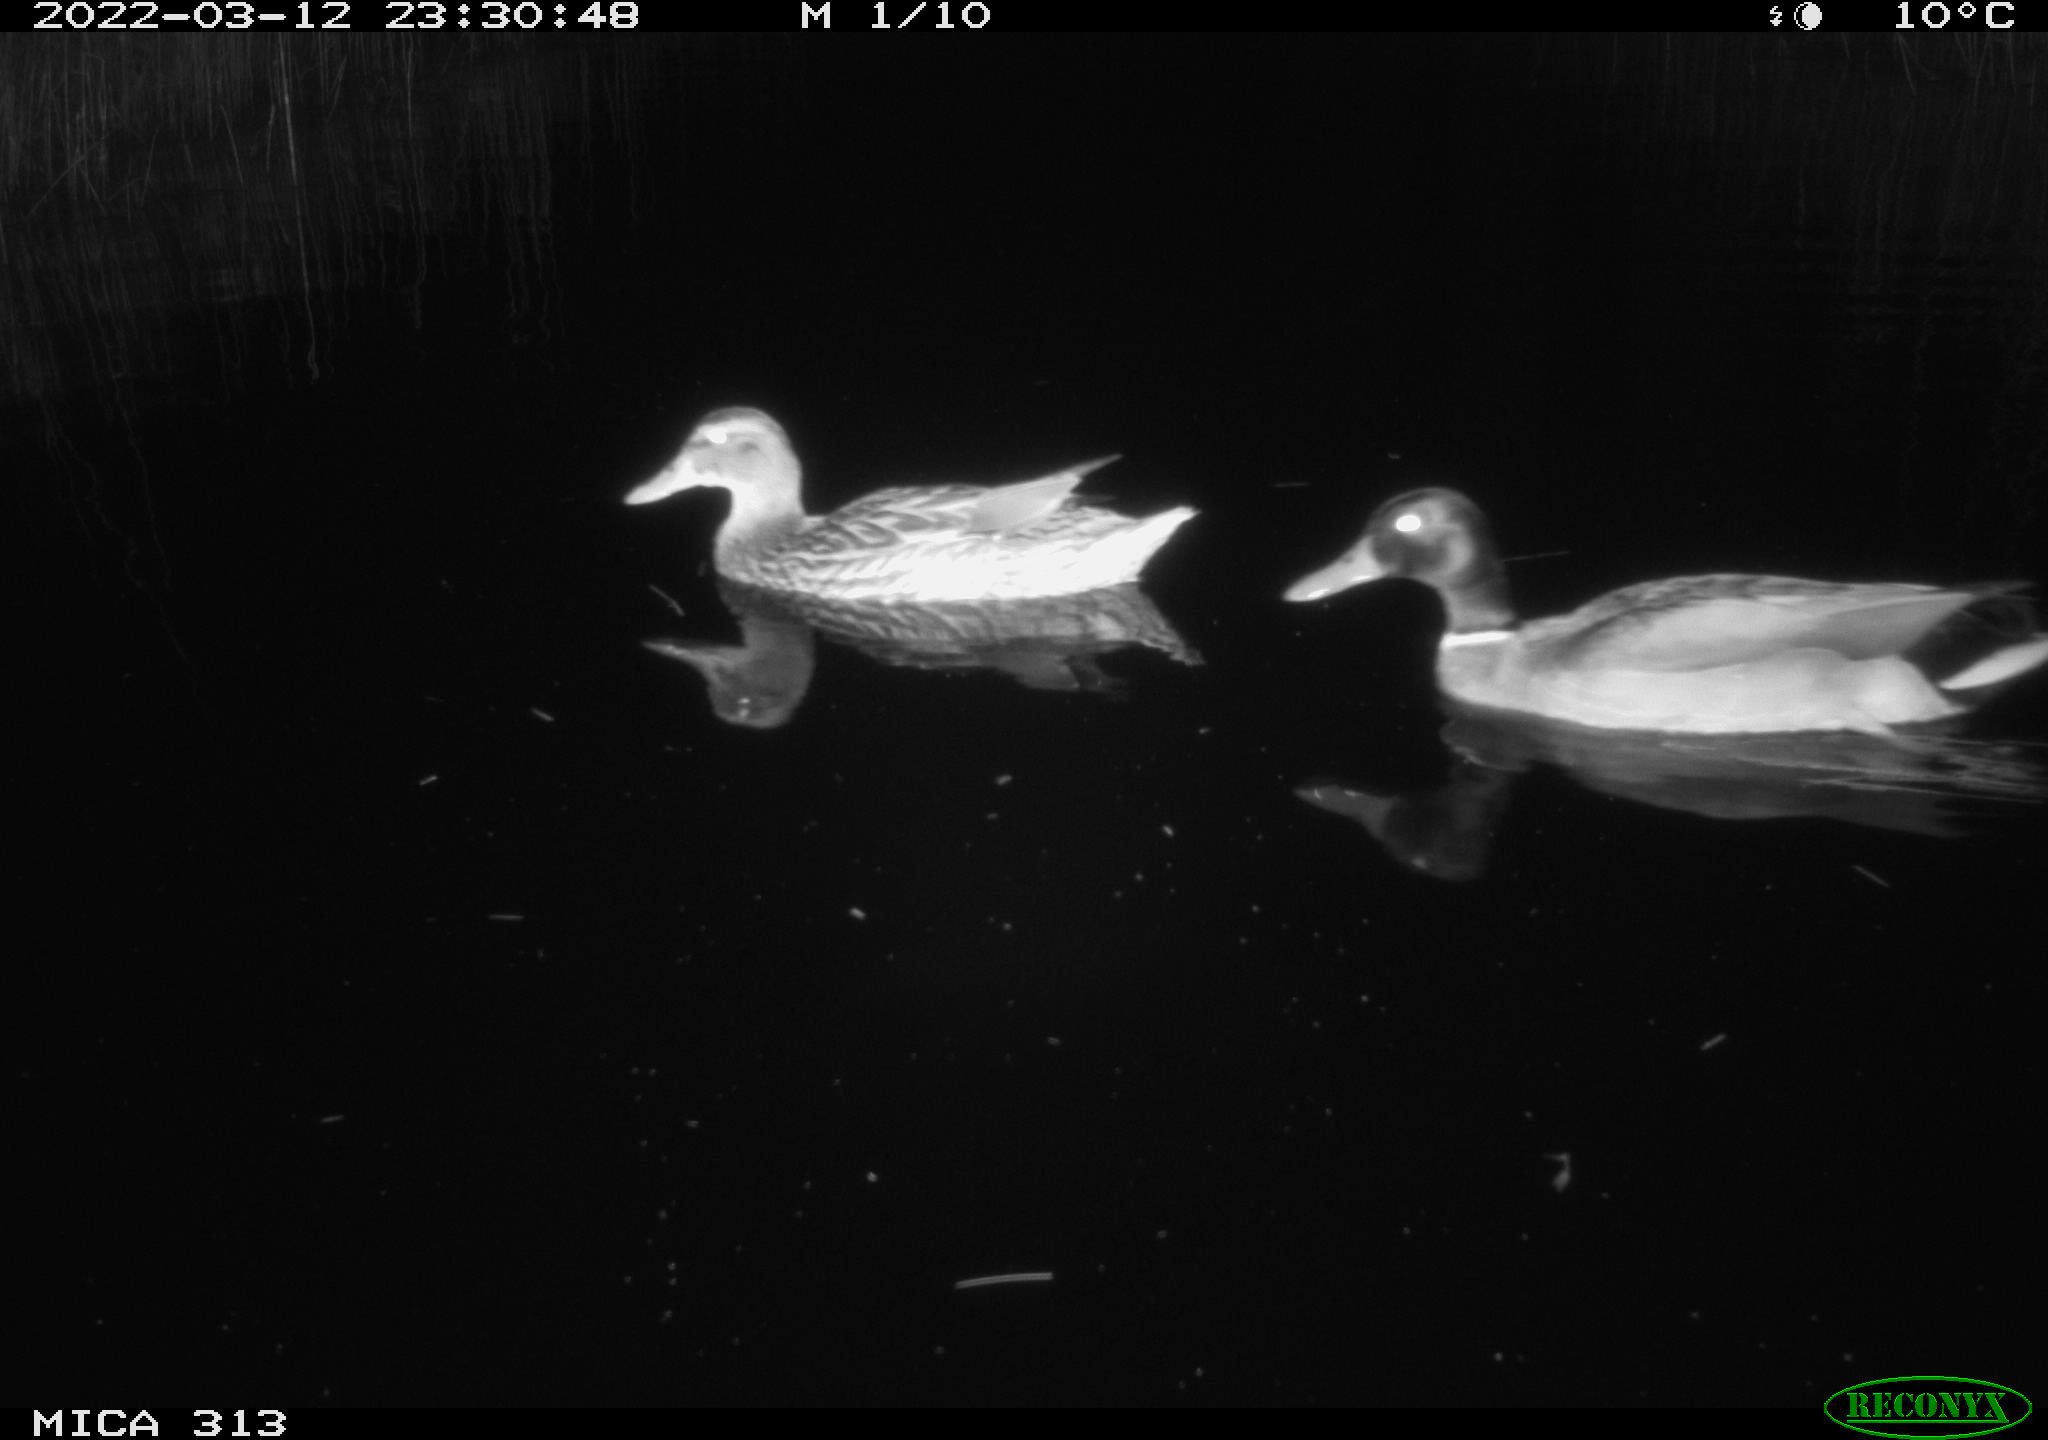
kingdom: Animalia
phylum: Chordata
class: Aves
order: Anseriformes
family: Anatidae
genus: Anas
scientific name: Anas platyrhynchos
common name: Mallard
